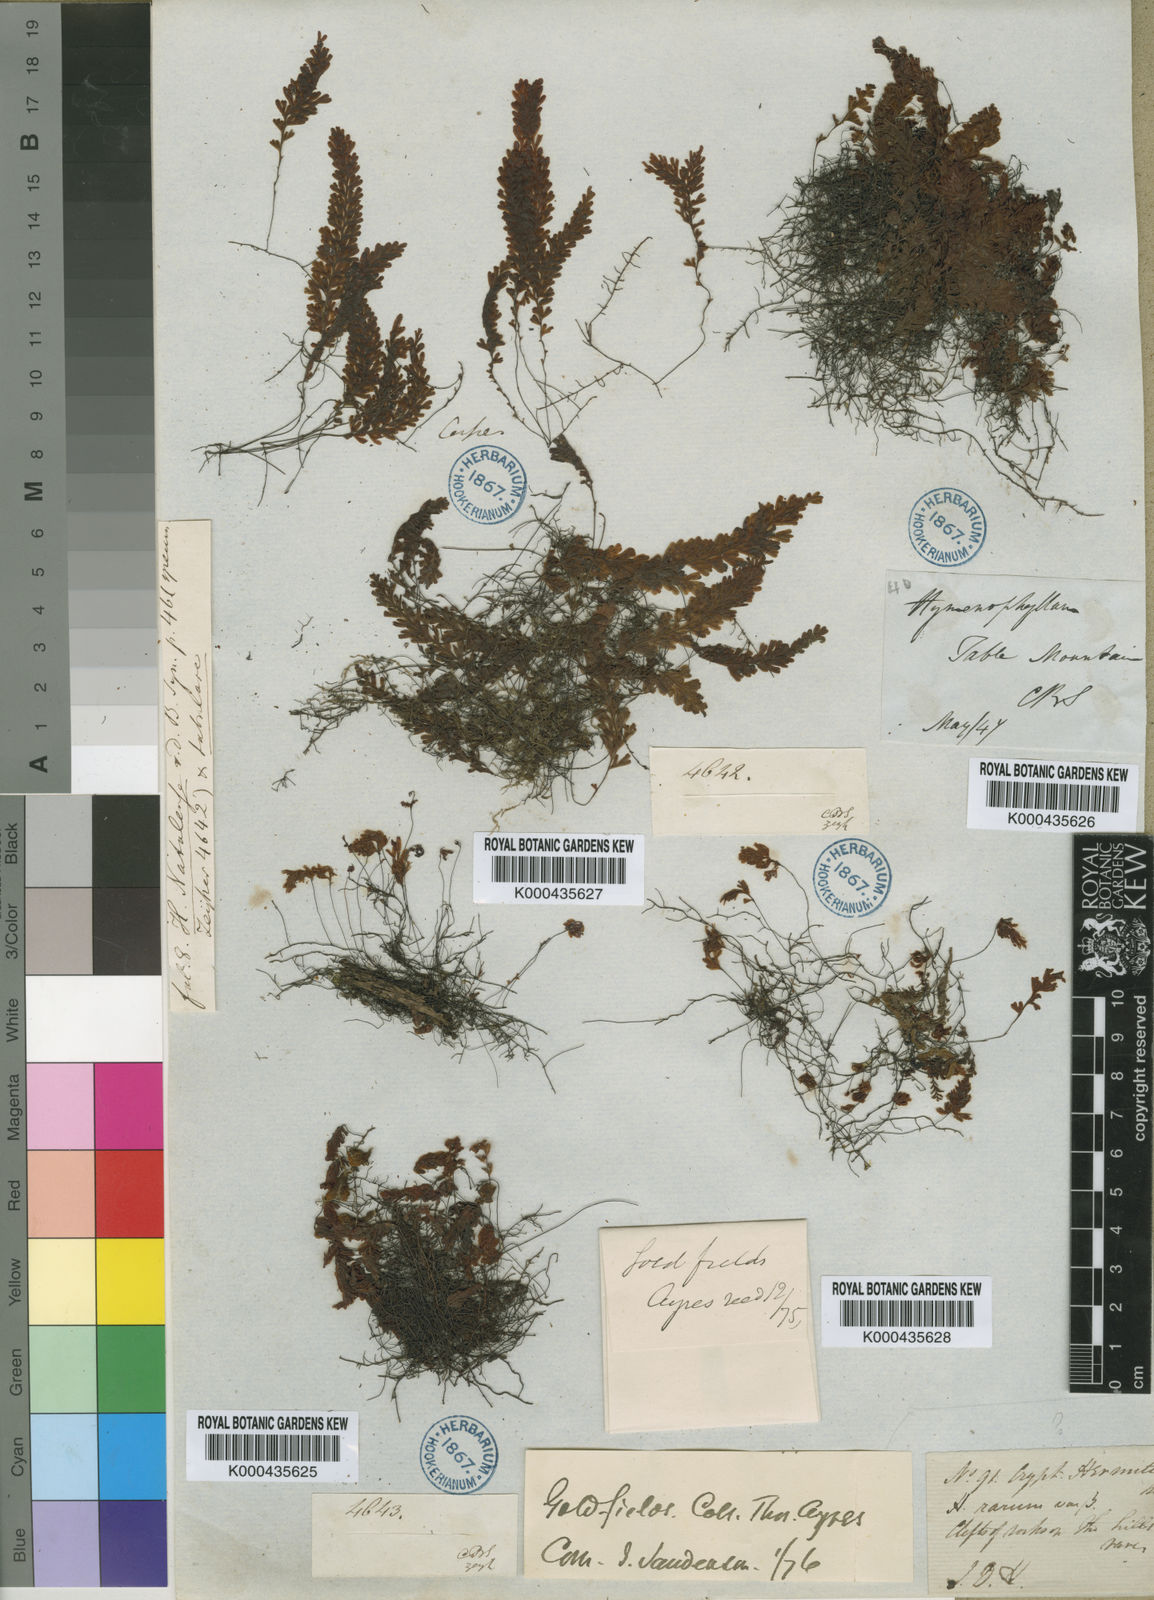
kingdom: Plantae
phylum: Tracheophyta
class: Polypodiopsida
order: Hymenophyllales
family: Hymenophyllaceae
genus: Hymenophyllum
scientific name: Hymenophyllum capense
